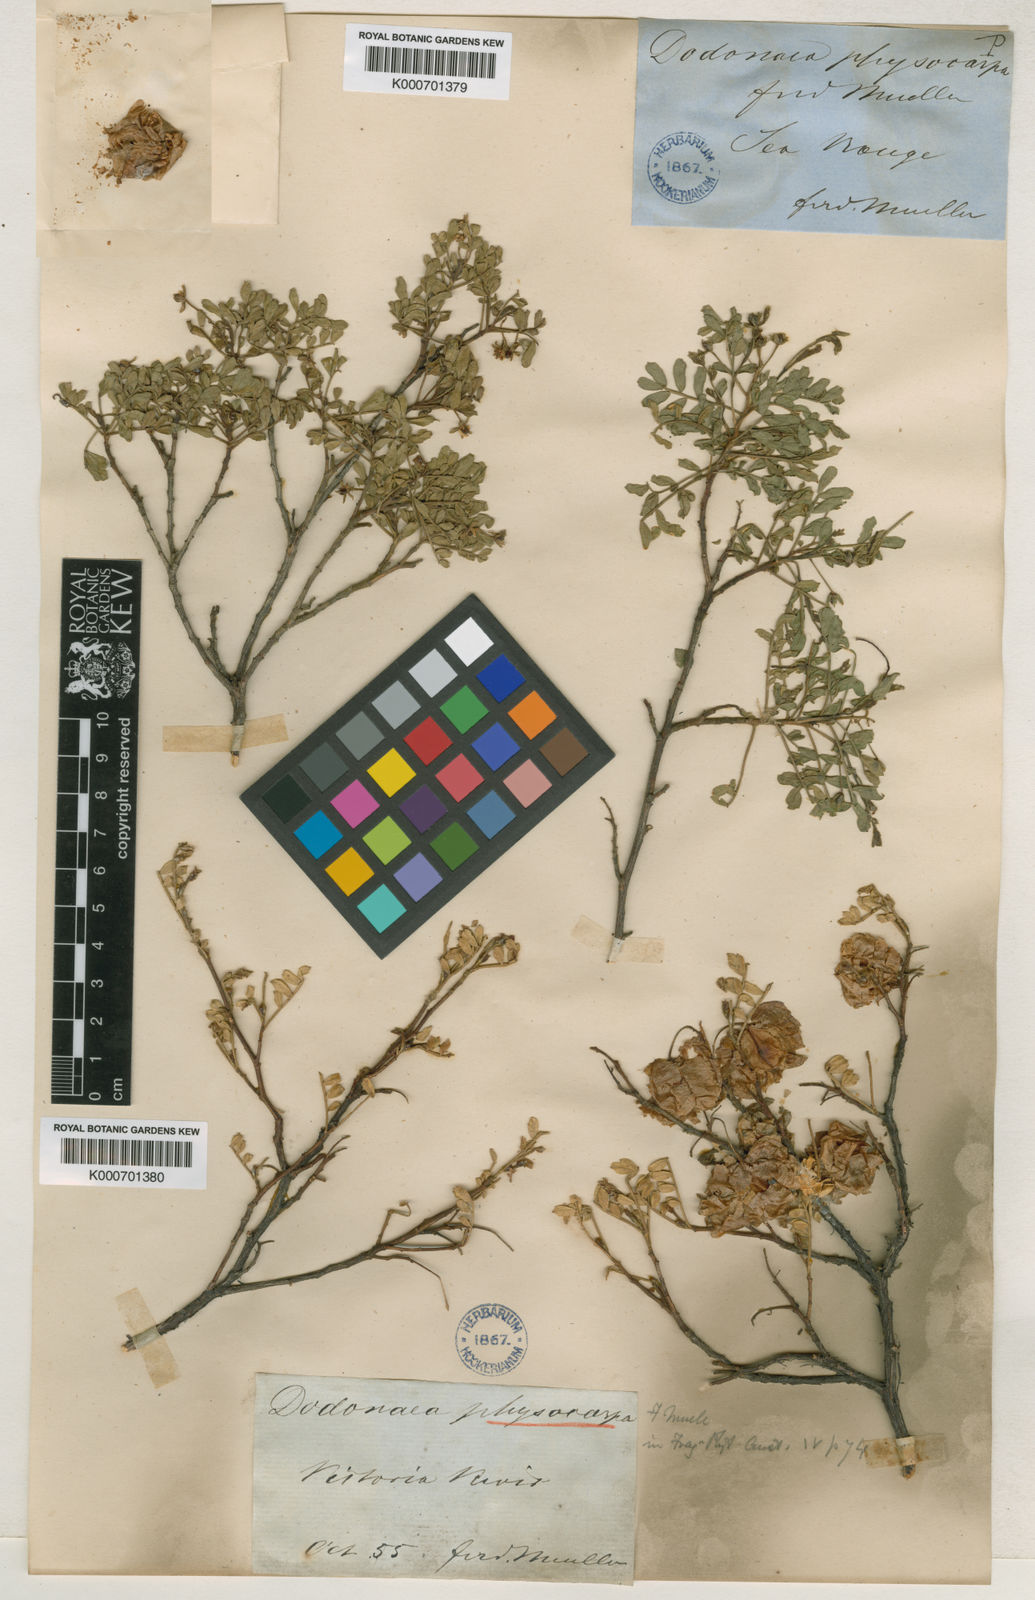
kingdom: Plantae
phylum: Tracheophyta
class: Magnoliopsida
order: Sapindales
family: Sapindaceae
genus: Dodonaea
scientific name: Dodonaea physocarpa
